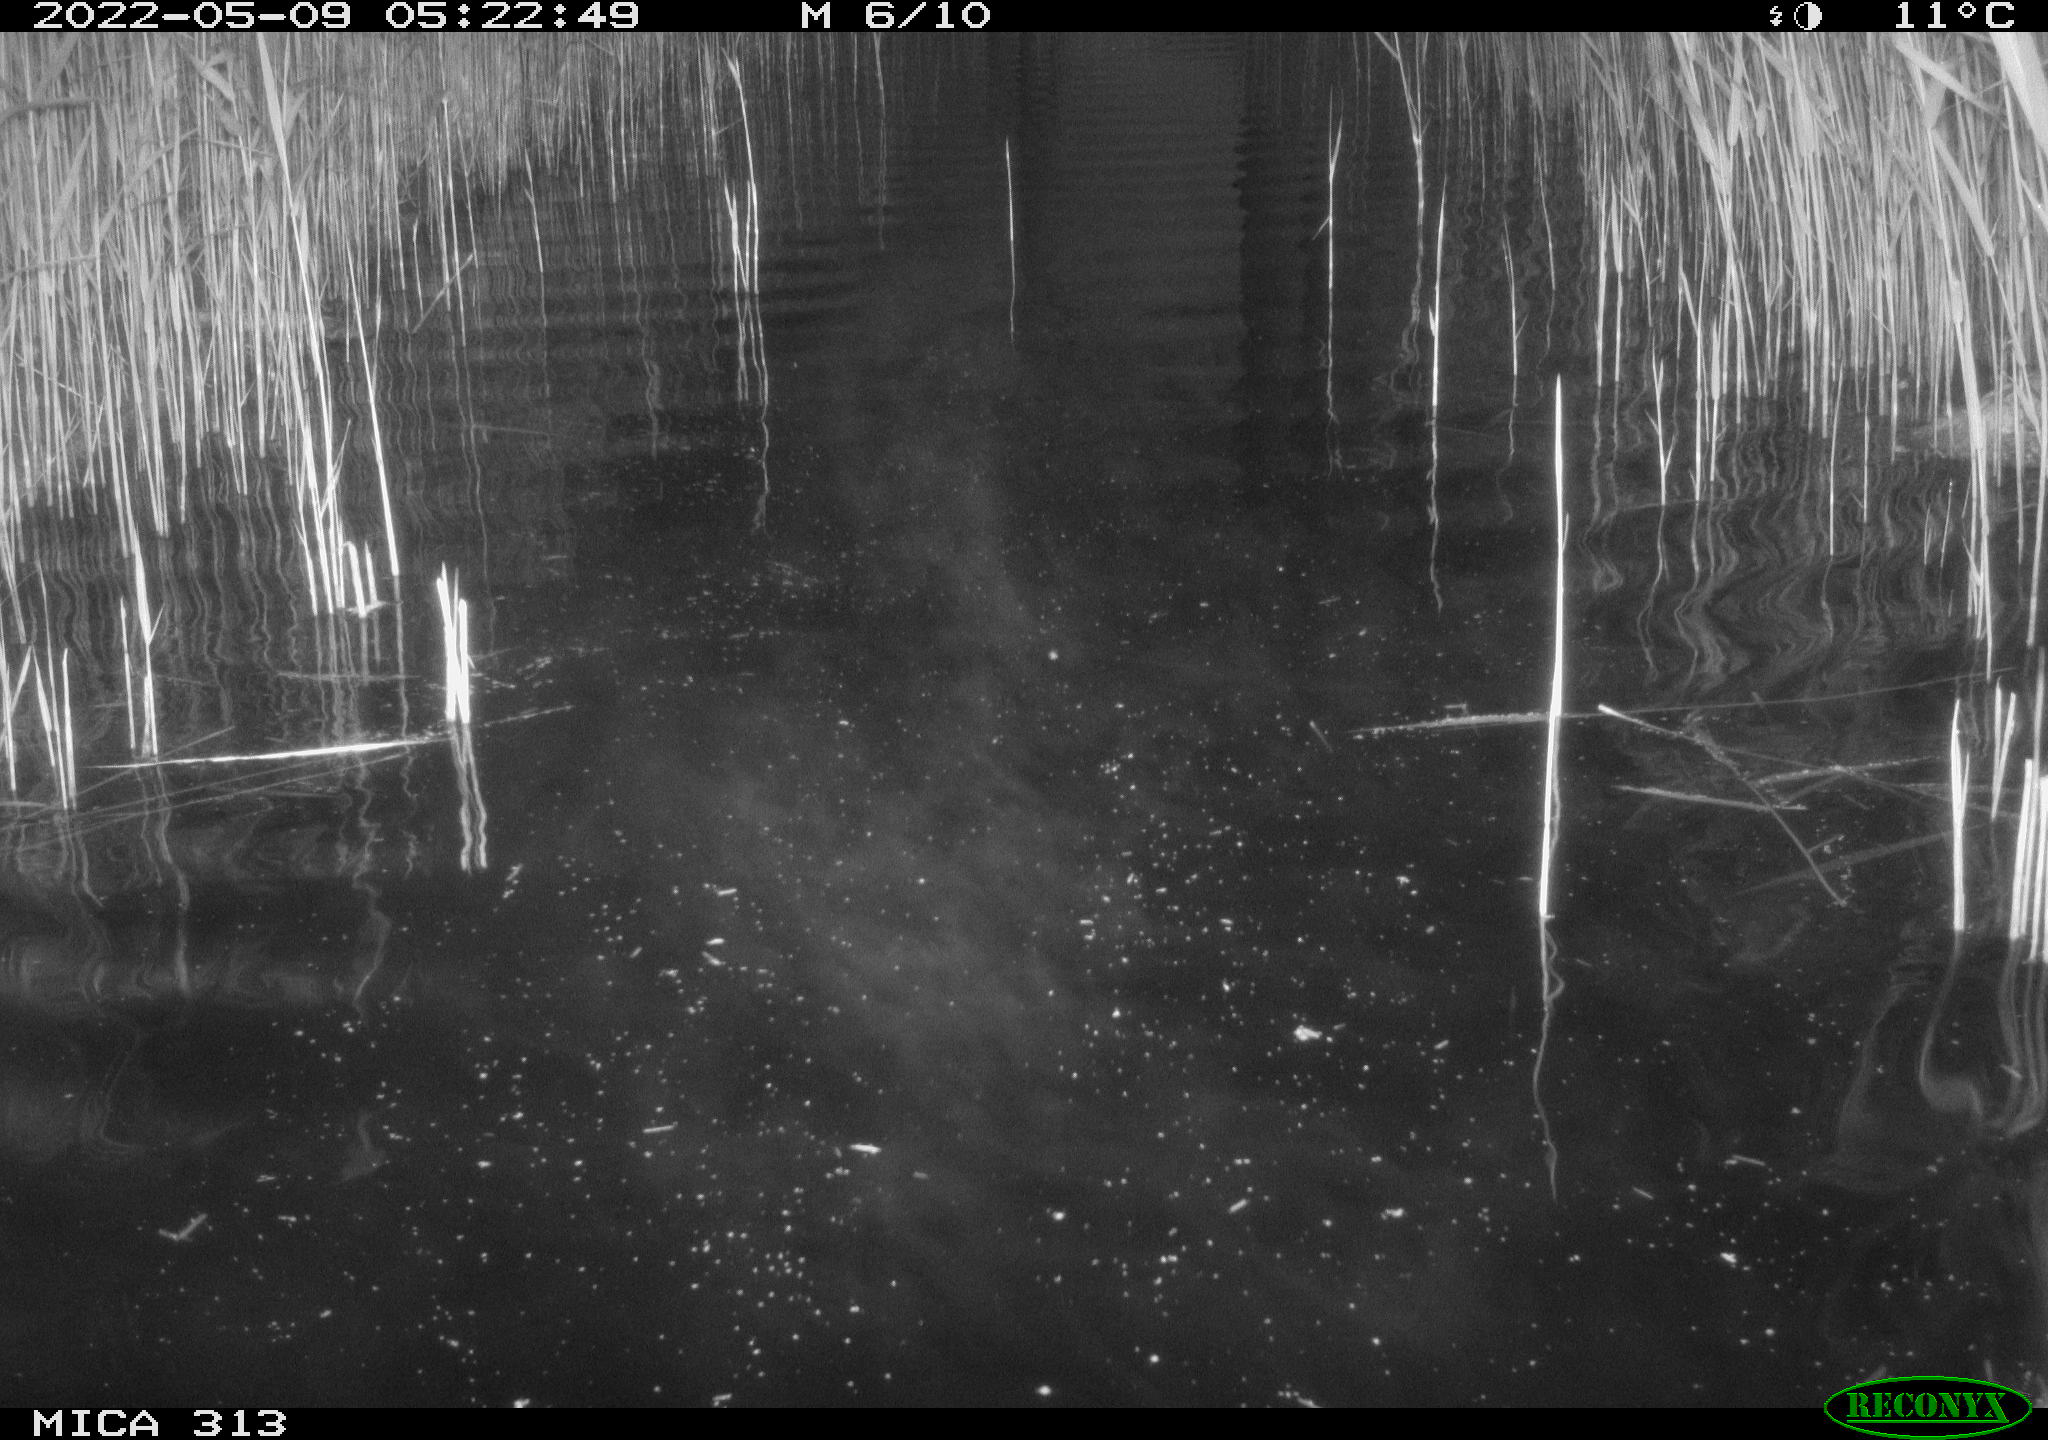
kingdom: Animalia
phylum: Chordata
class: Aves
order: Anseriformes
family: Anatidae
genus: Anas
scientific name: Anas platyrhynchos
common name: Mallard
